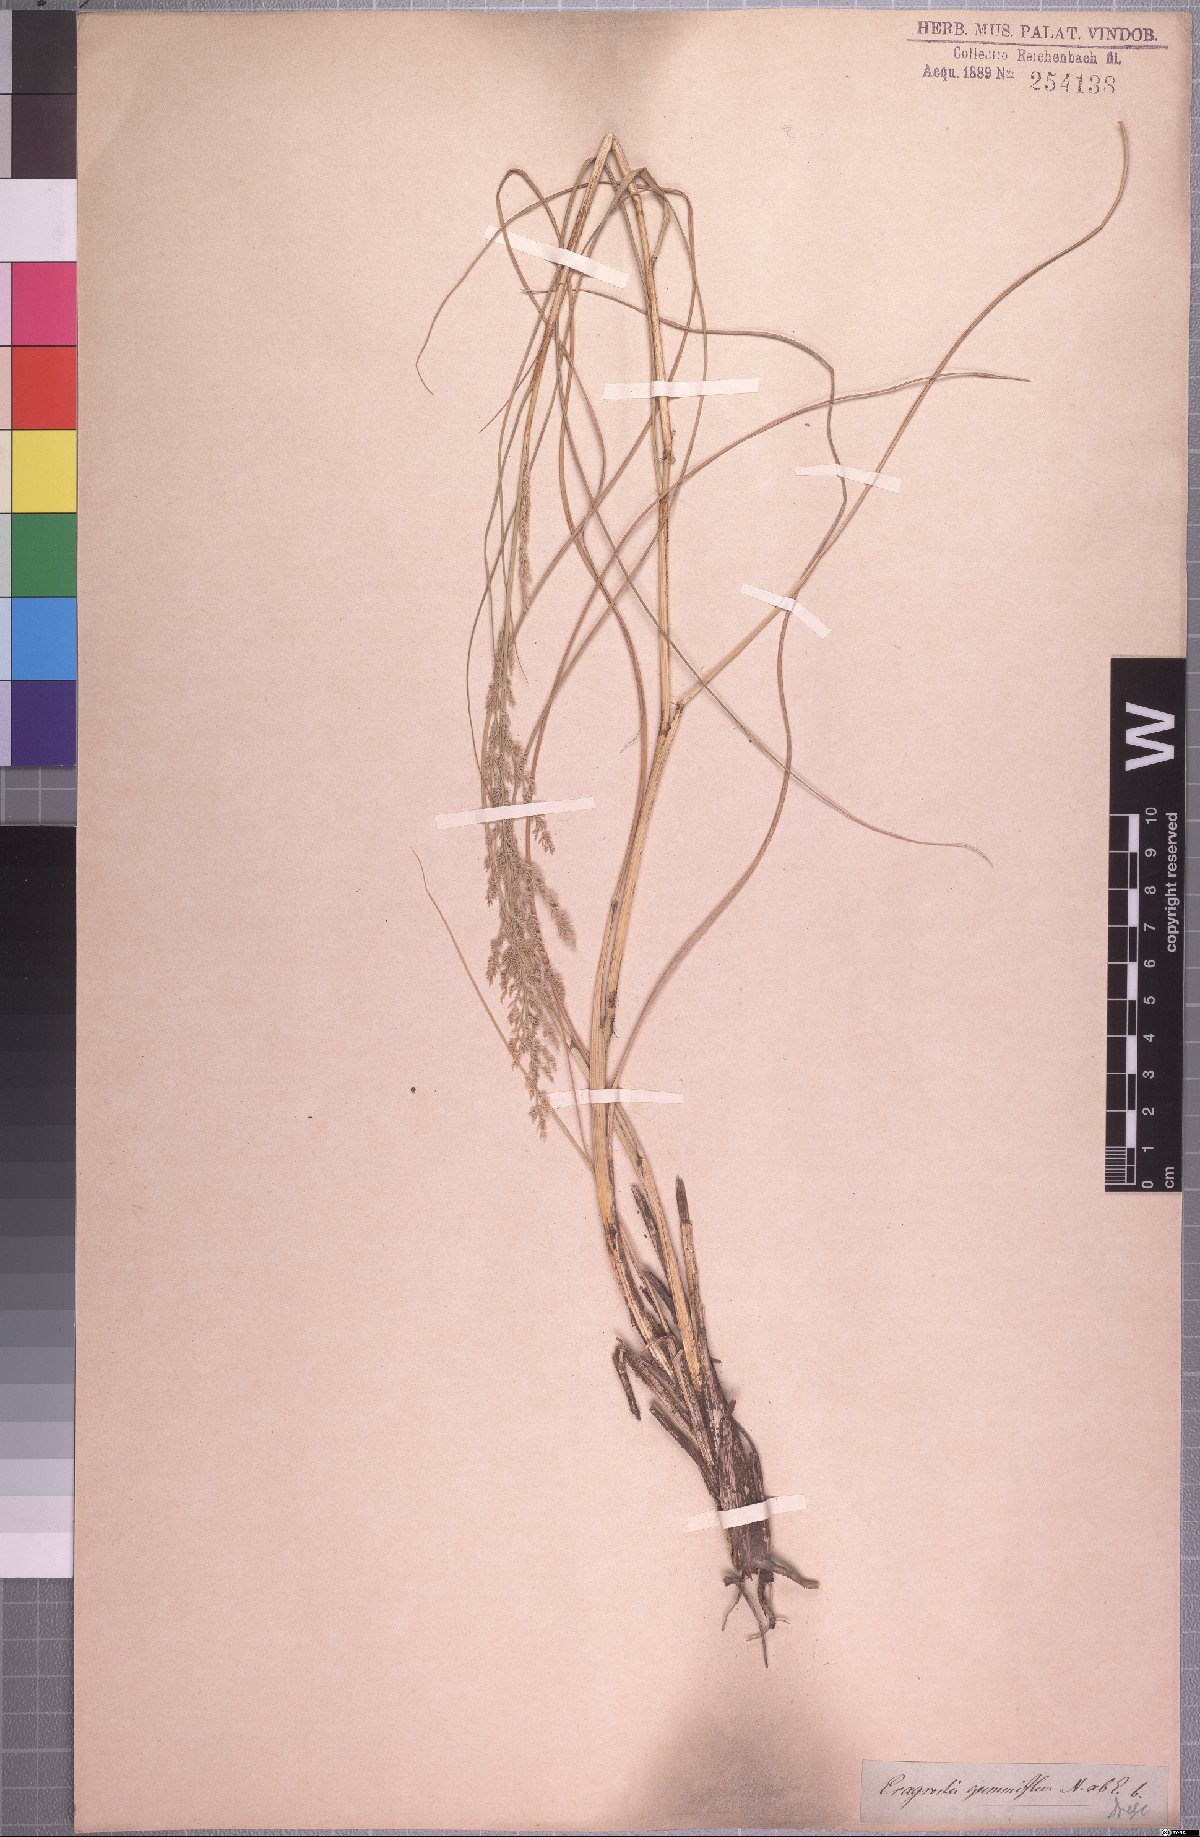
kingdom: Plantae
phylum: Tracheophyta
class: Liliopsida
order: Poales
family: Poaceae
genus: Eragrostis
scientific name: Eragrostis gummiflua
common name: Gum grass
